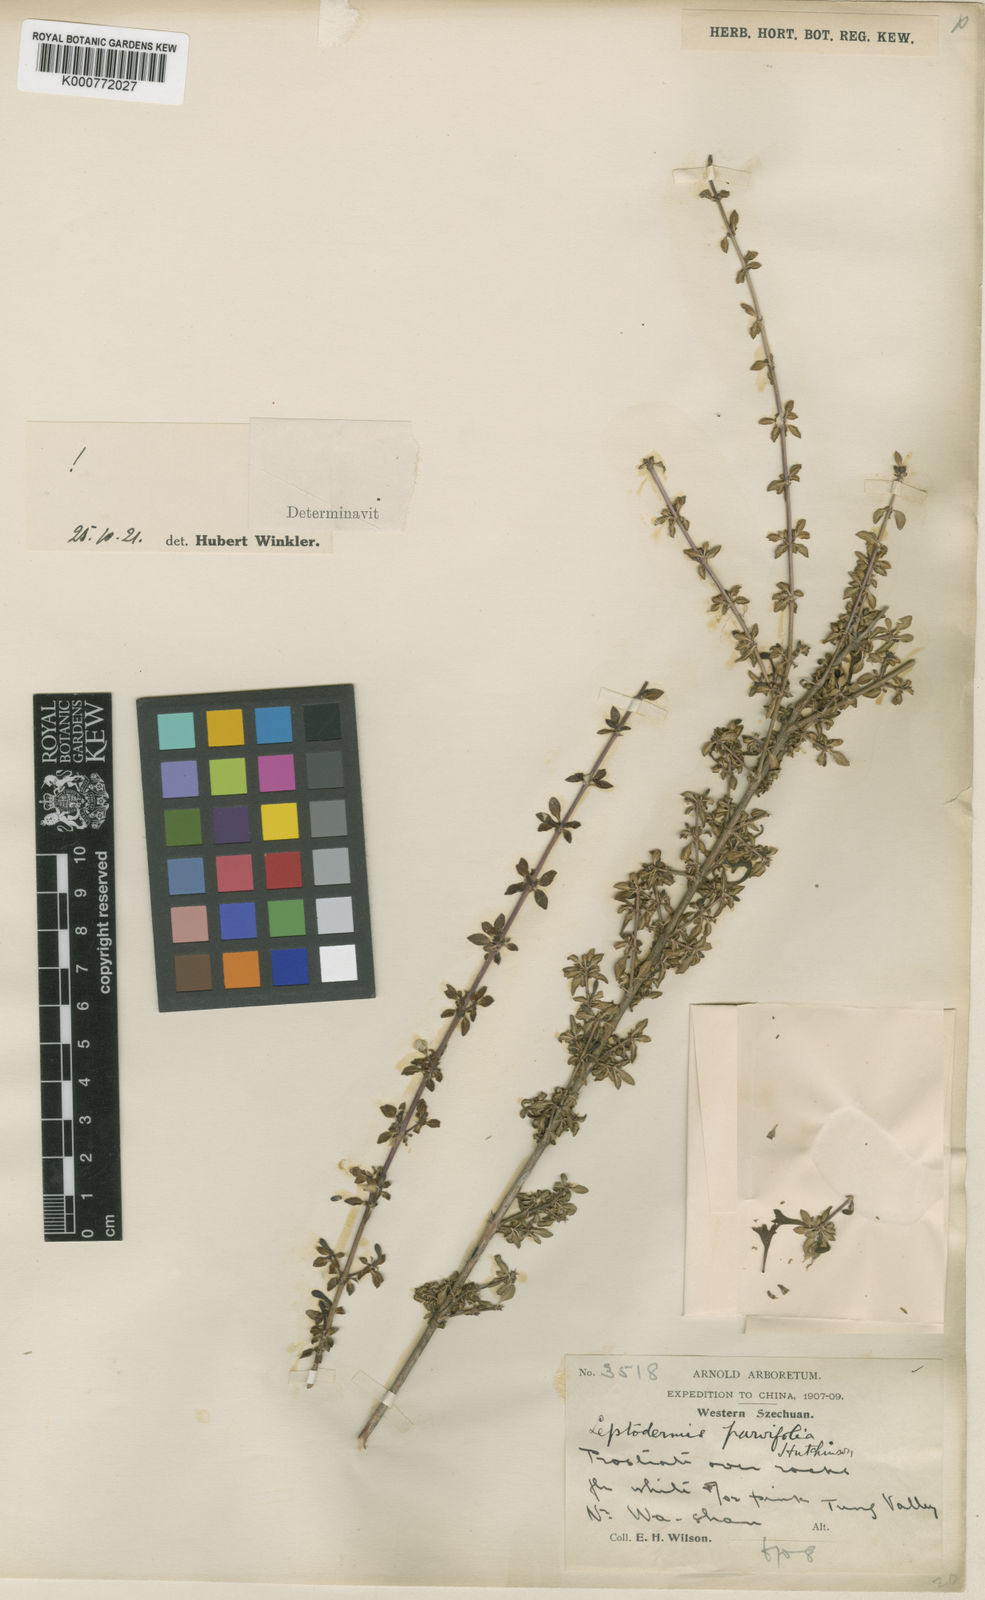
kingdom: Plantae
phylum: Tracheophyta
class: Magnoliopsida
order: Gentianales
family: Rubiaceae
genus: Leptodermis
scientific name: Leptodermis parvifolia
